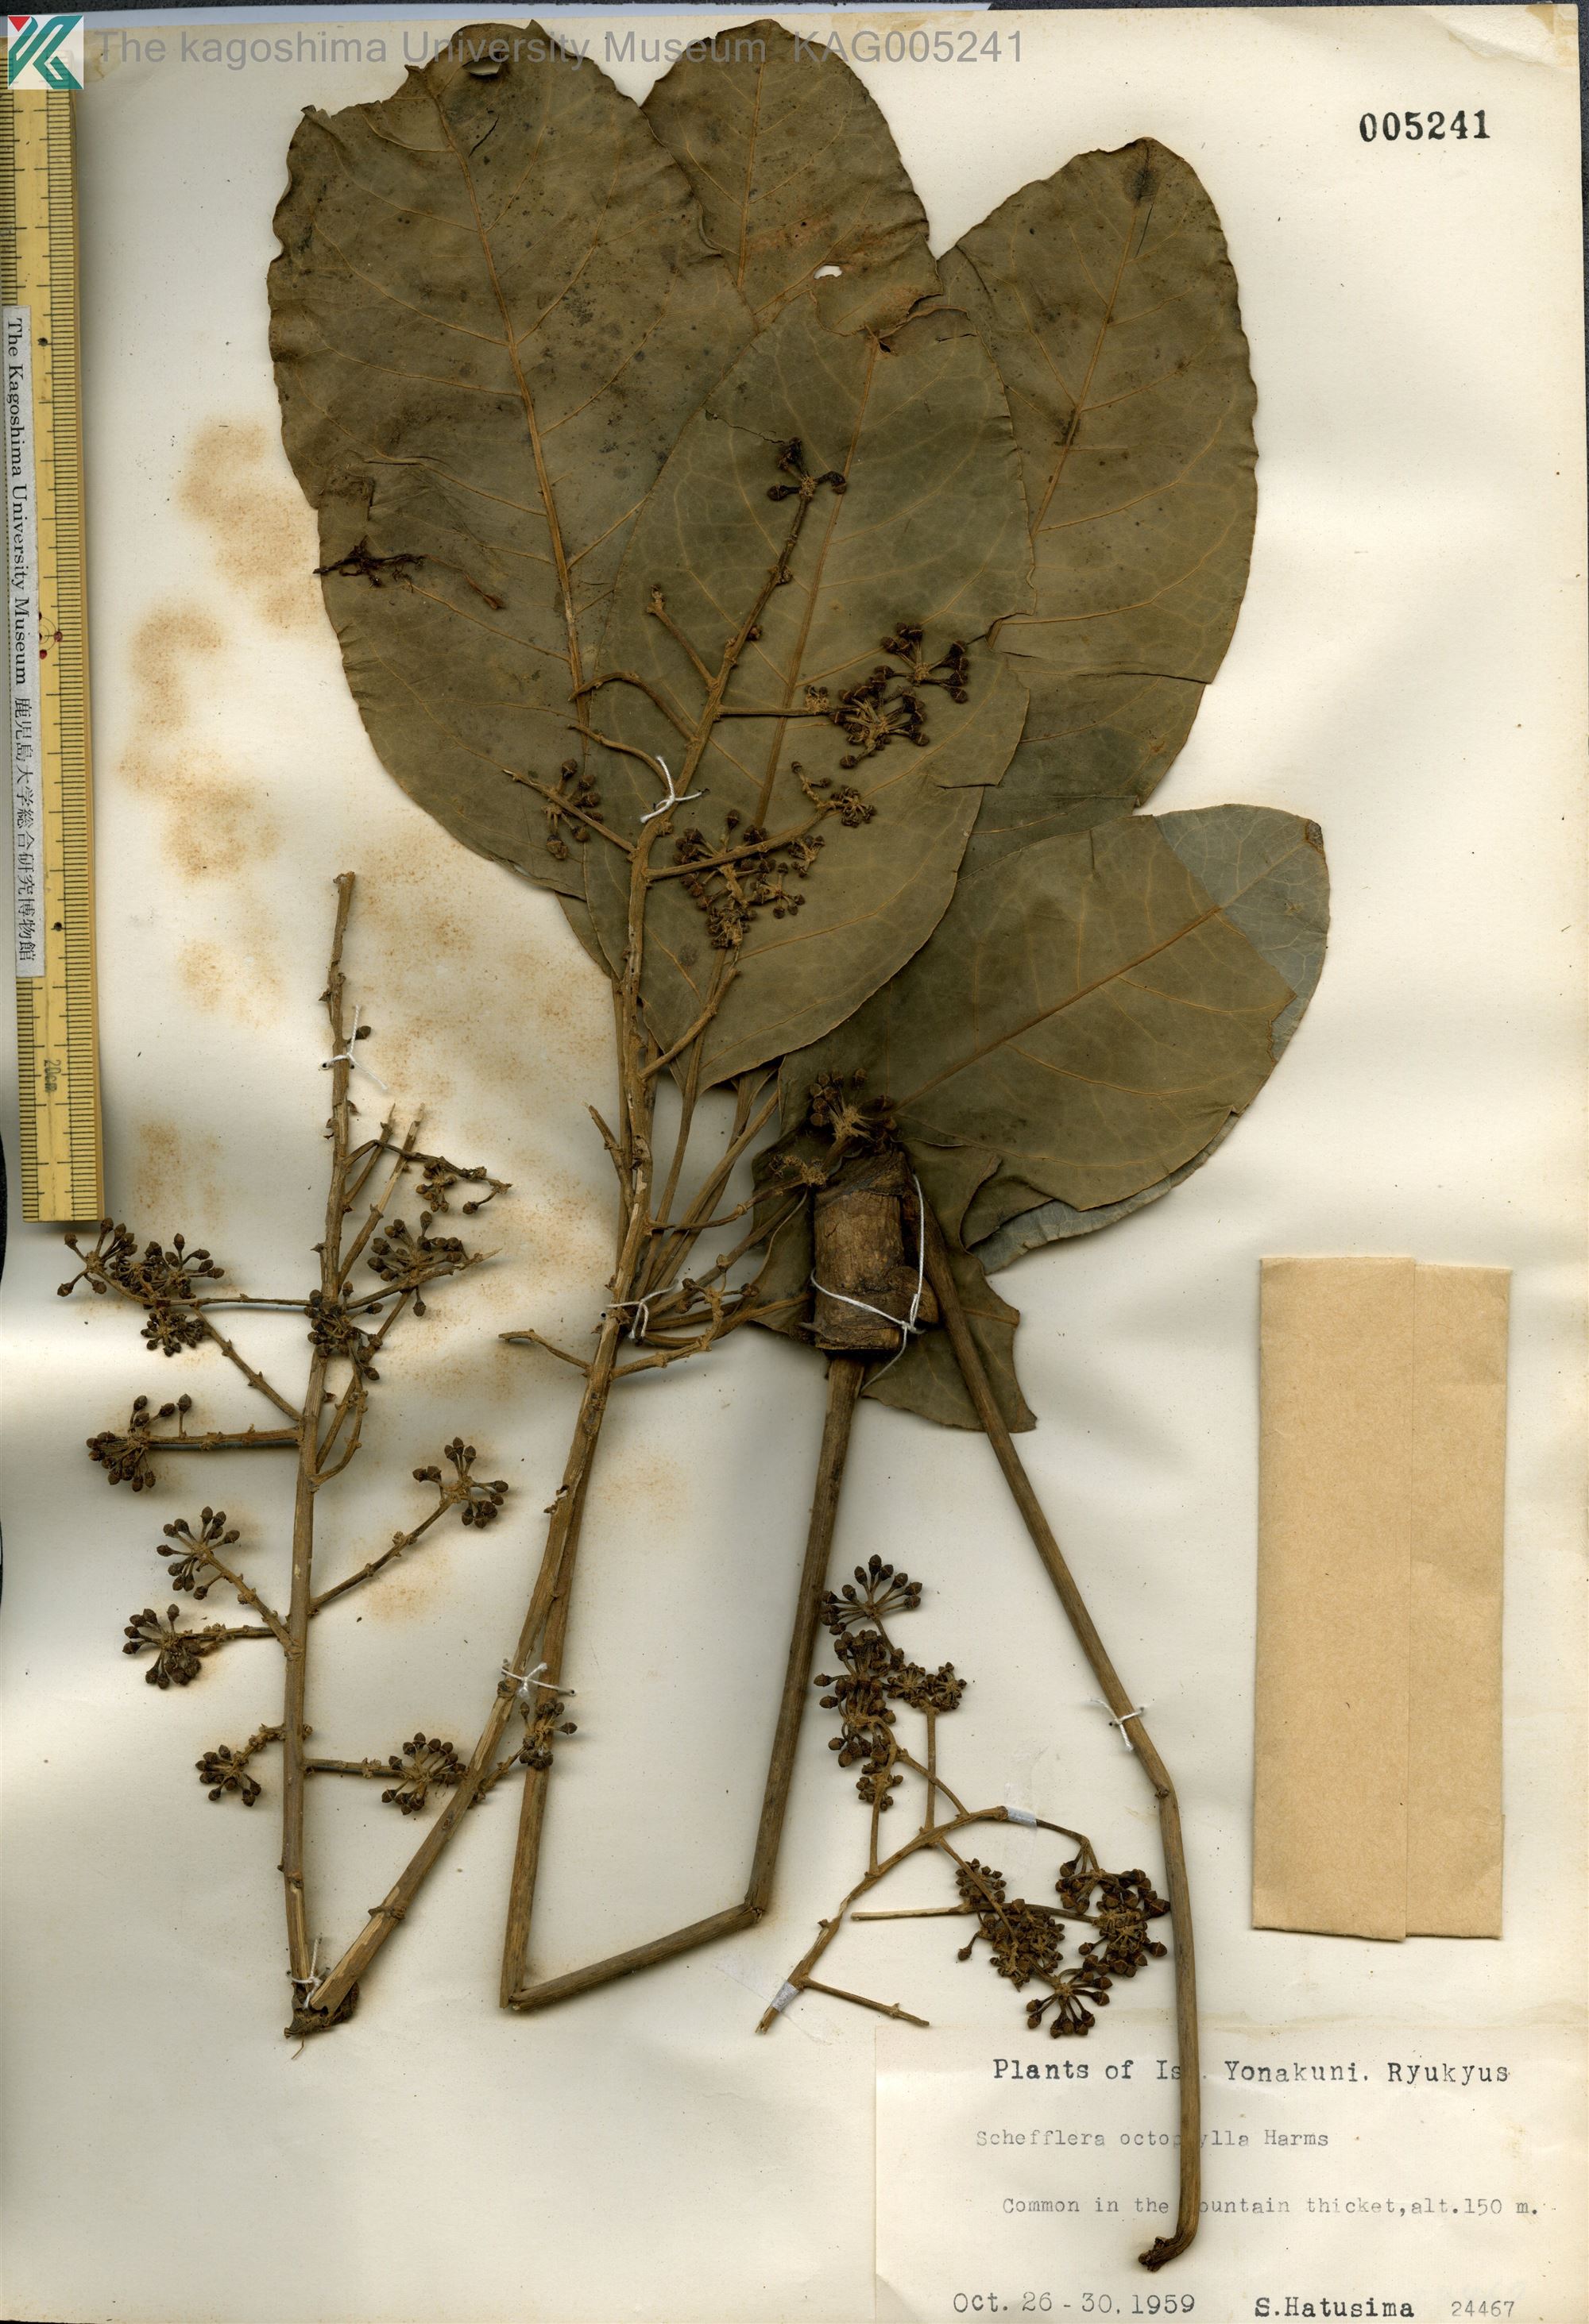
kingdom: Plantae
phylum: Tracheophyta
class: Magnoliopsida
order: Apiales
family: Araliaceae
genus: Heptapleurum
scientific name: Heptapleurum heptaphyllum
